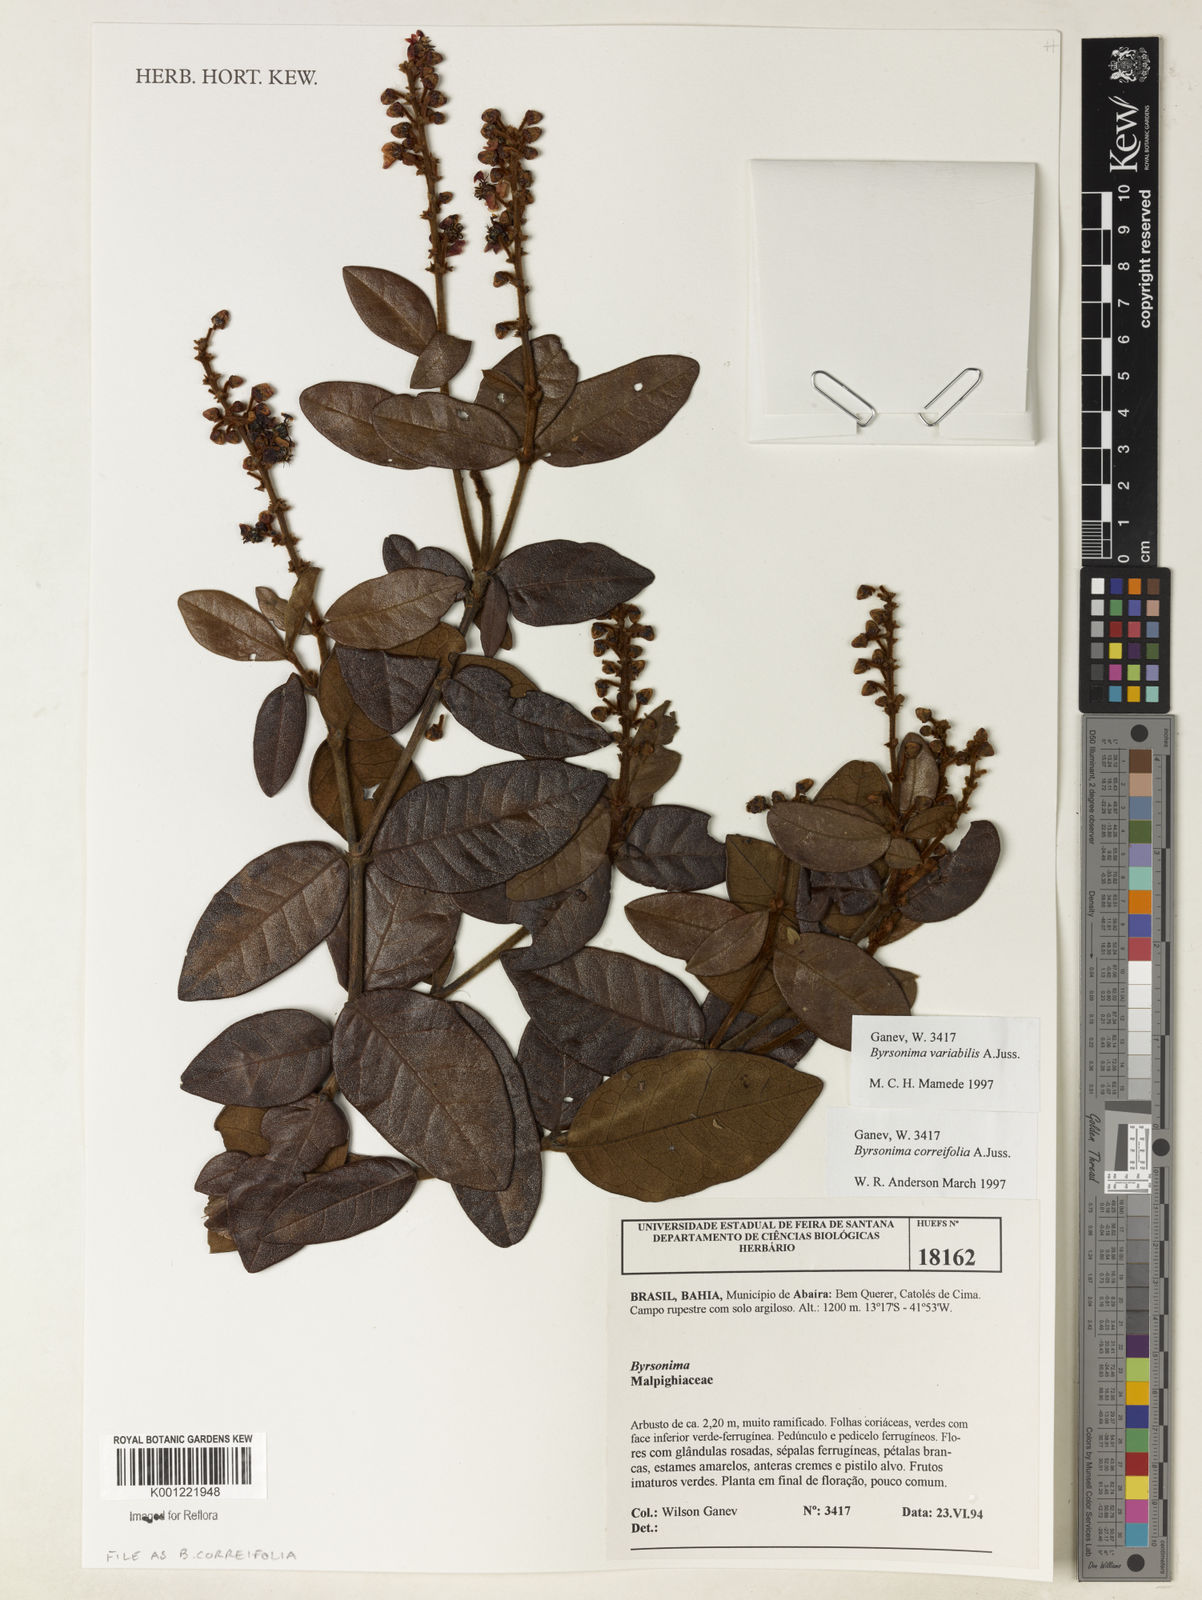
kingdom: Plantae
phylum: Tracheophyta
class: Magnoliopsida
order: Malpighiales
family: Malpighiaceae
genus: Byrsonima
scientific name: Byrsonima correifolia
